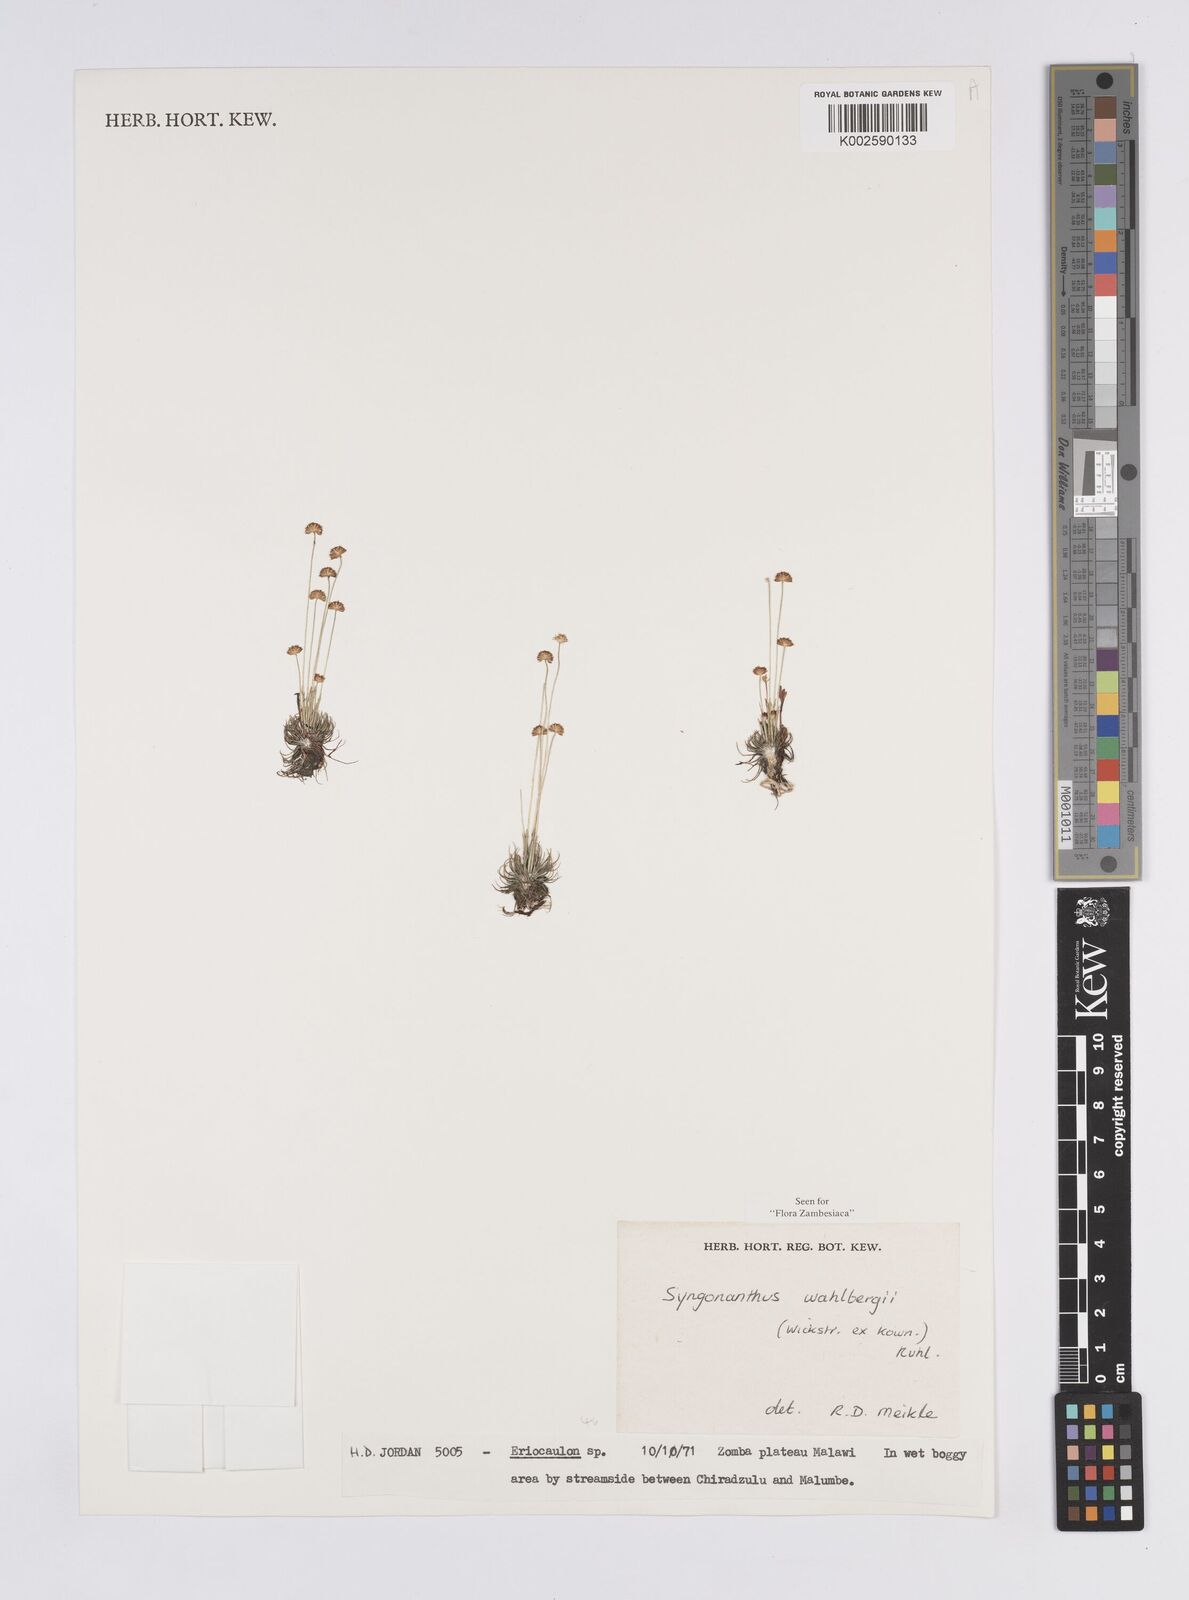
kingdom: Plantae
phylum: Tracheophyta
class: Liliopsida
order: Poales
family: Eriocaulaceae
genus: Syngonanthus
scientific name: Syngonanthus wahlbergii
